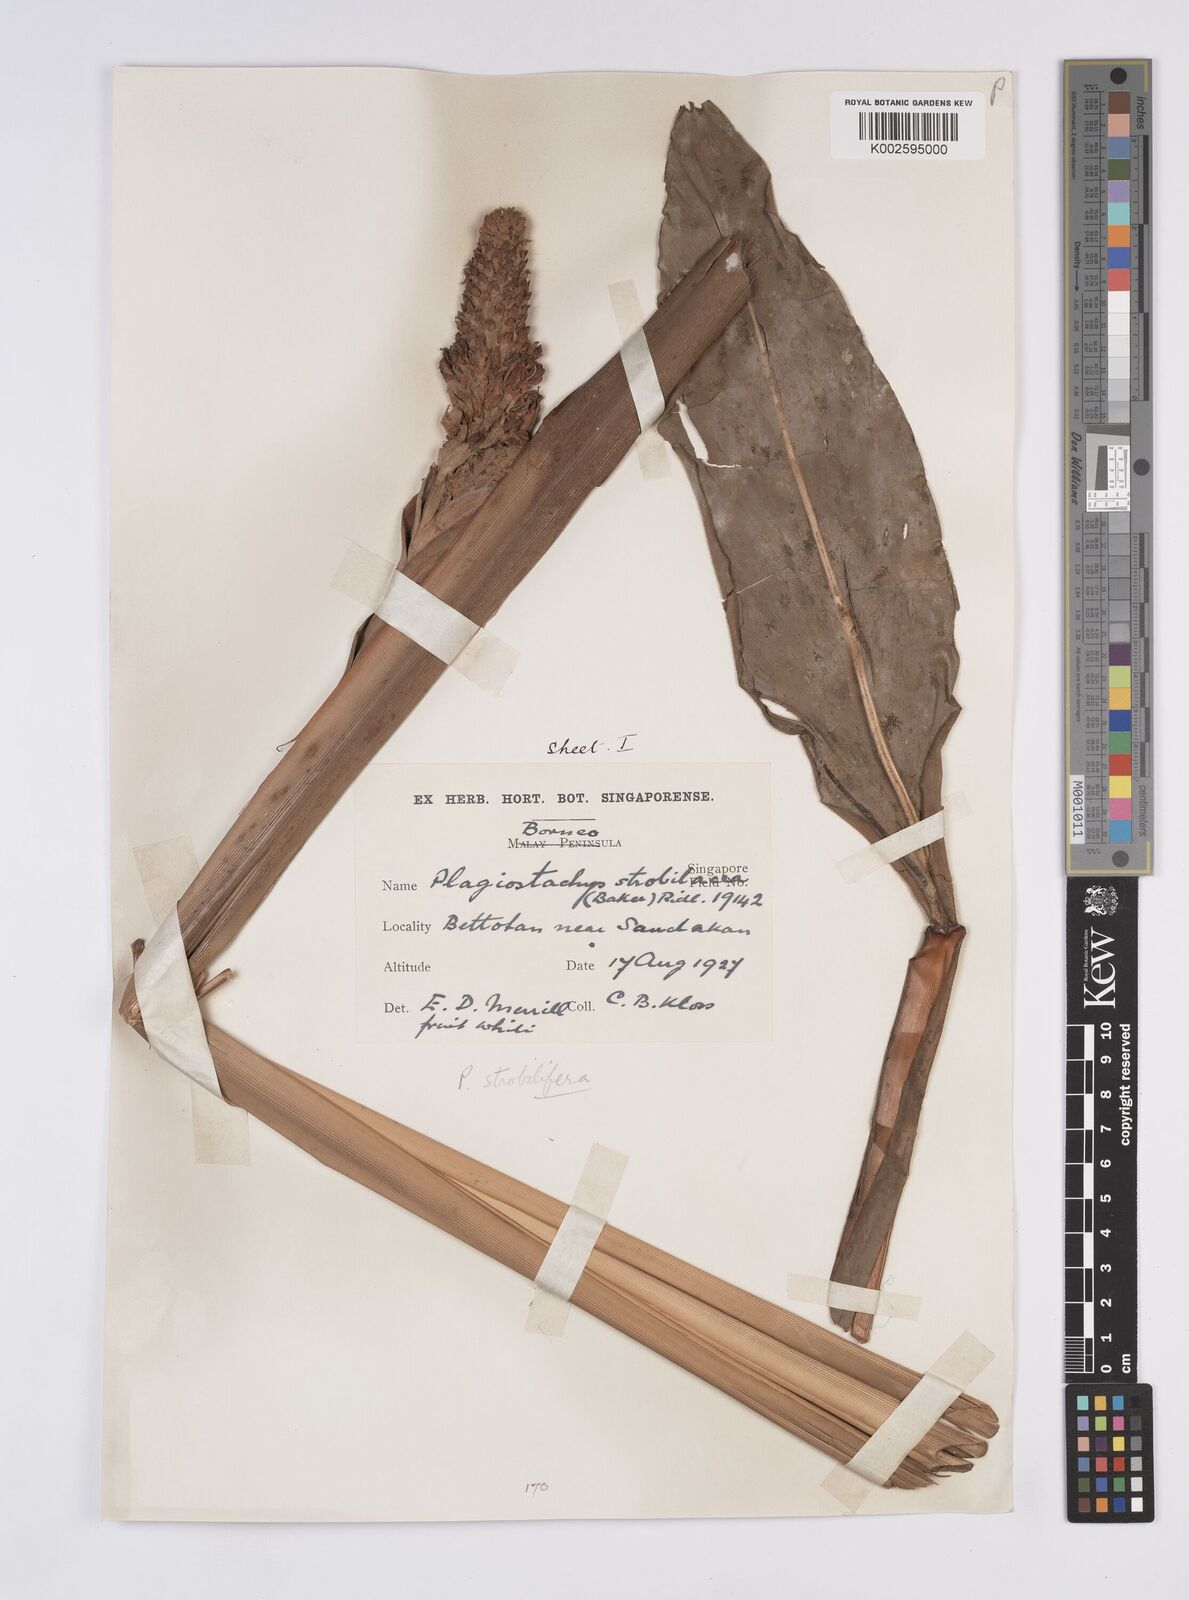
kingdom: Plantae
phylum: Tracheophyta
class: Liliopsida
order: Zingiberales
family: Zingiberaceae
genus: Plagiostachys
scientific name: Plagiostachys strobilifera
